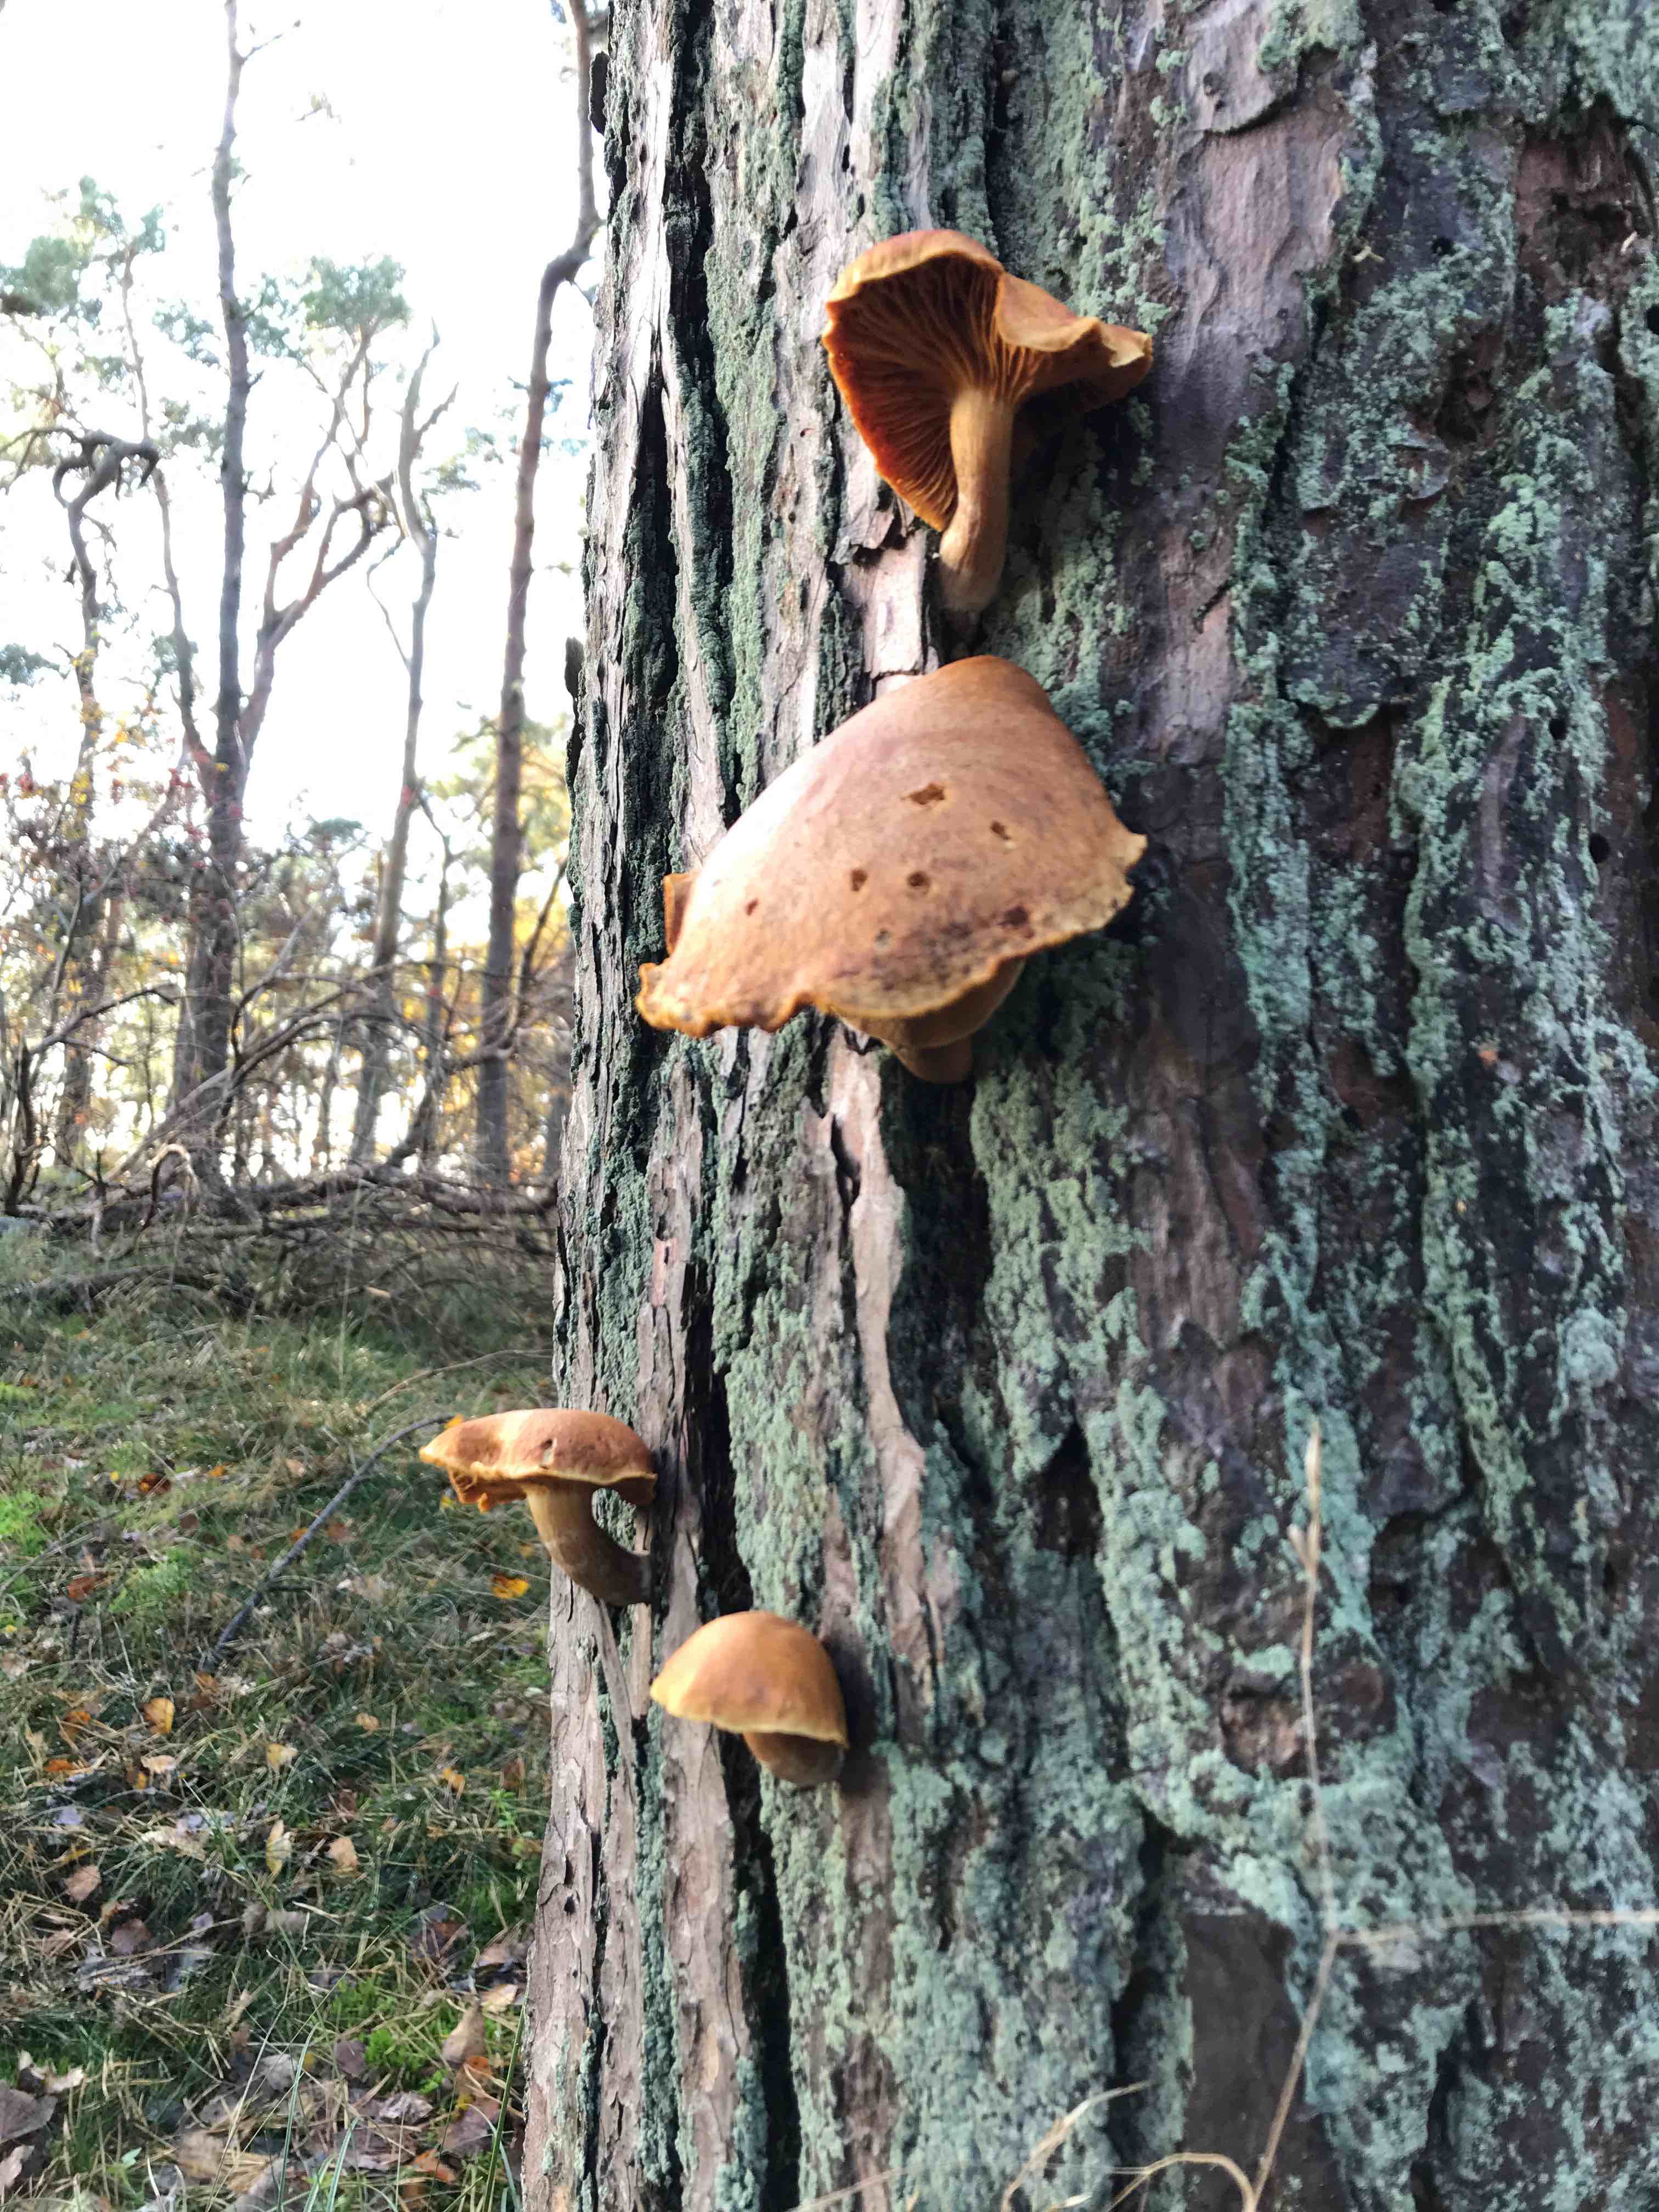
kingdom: Fungi
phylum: Basidiomycota
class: Agaricomycetes
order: Agaricales
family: Hymenogastraceae
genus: Gymnopilus
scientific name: Gymnopilus
